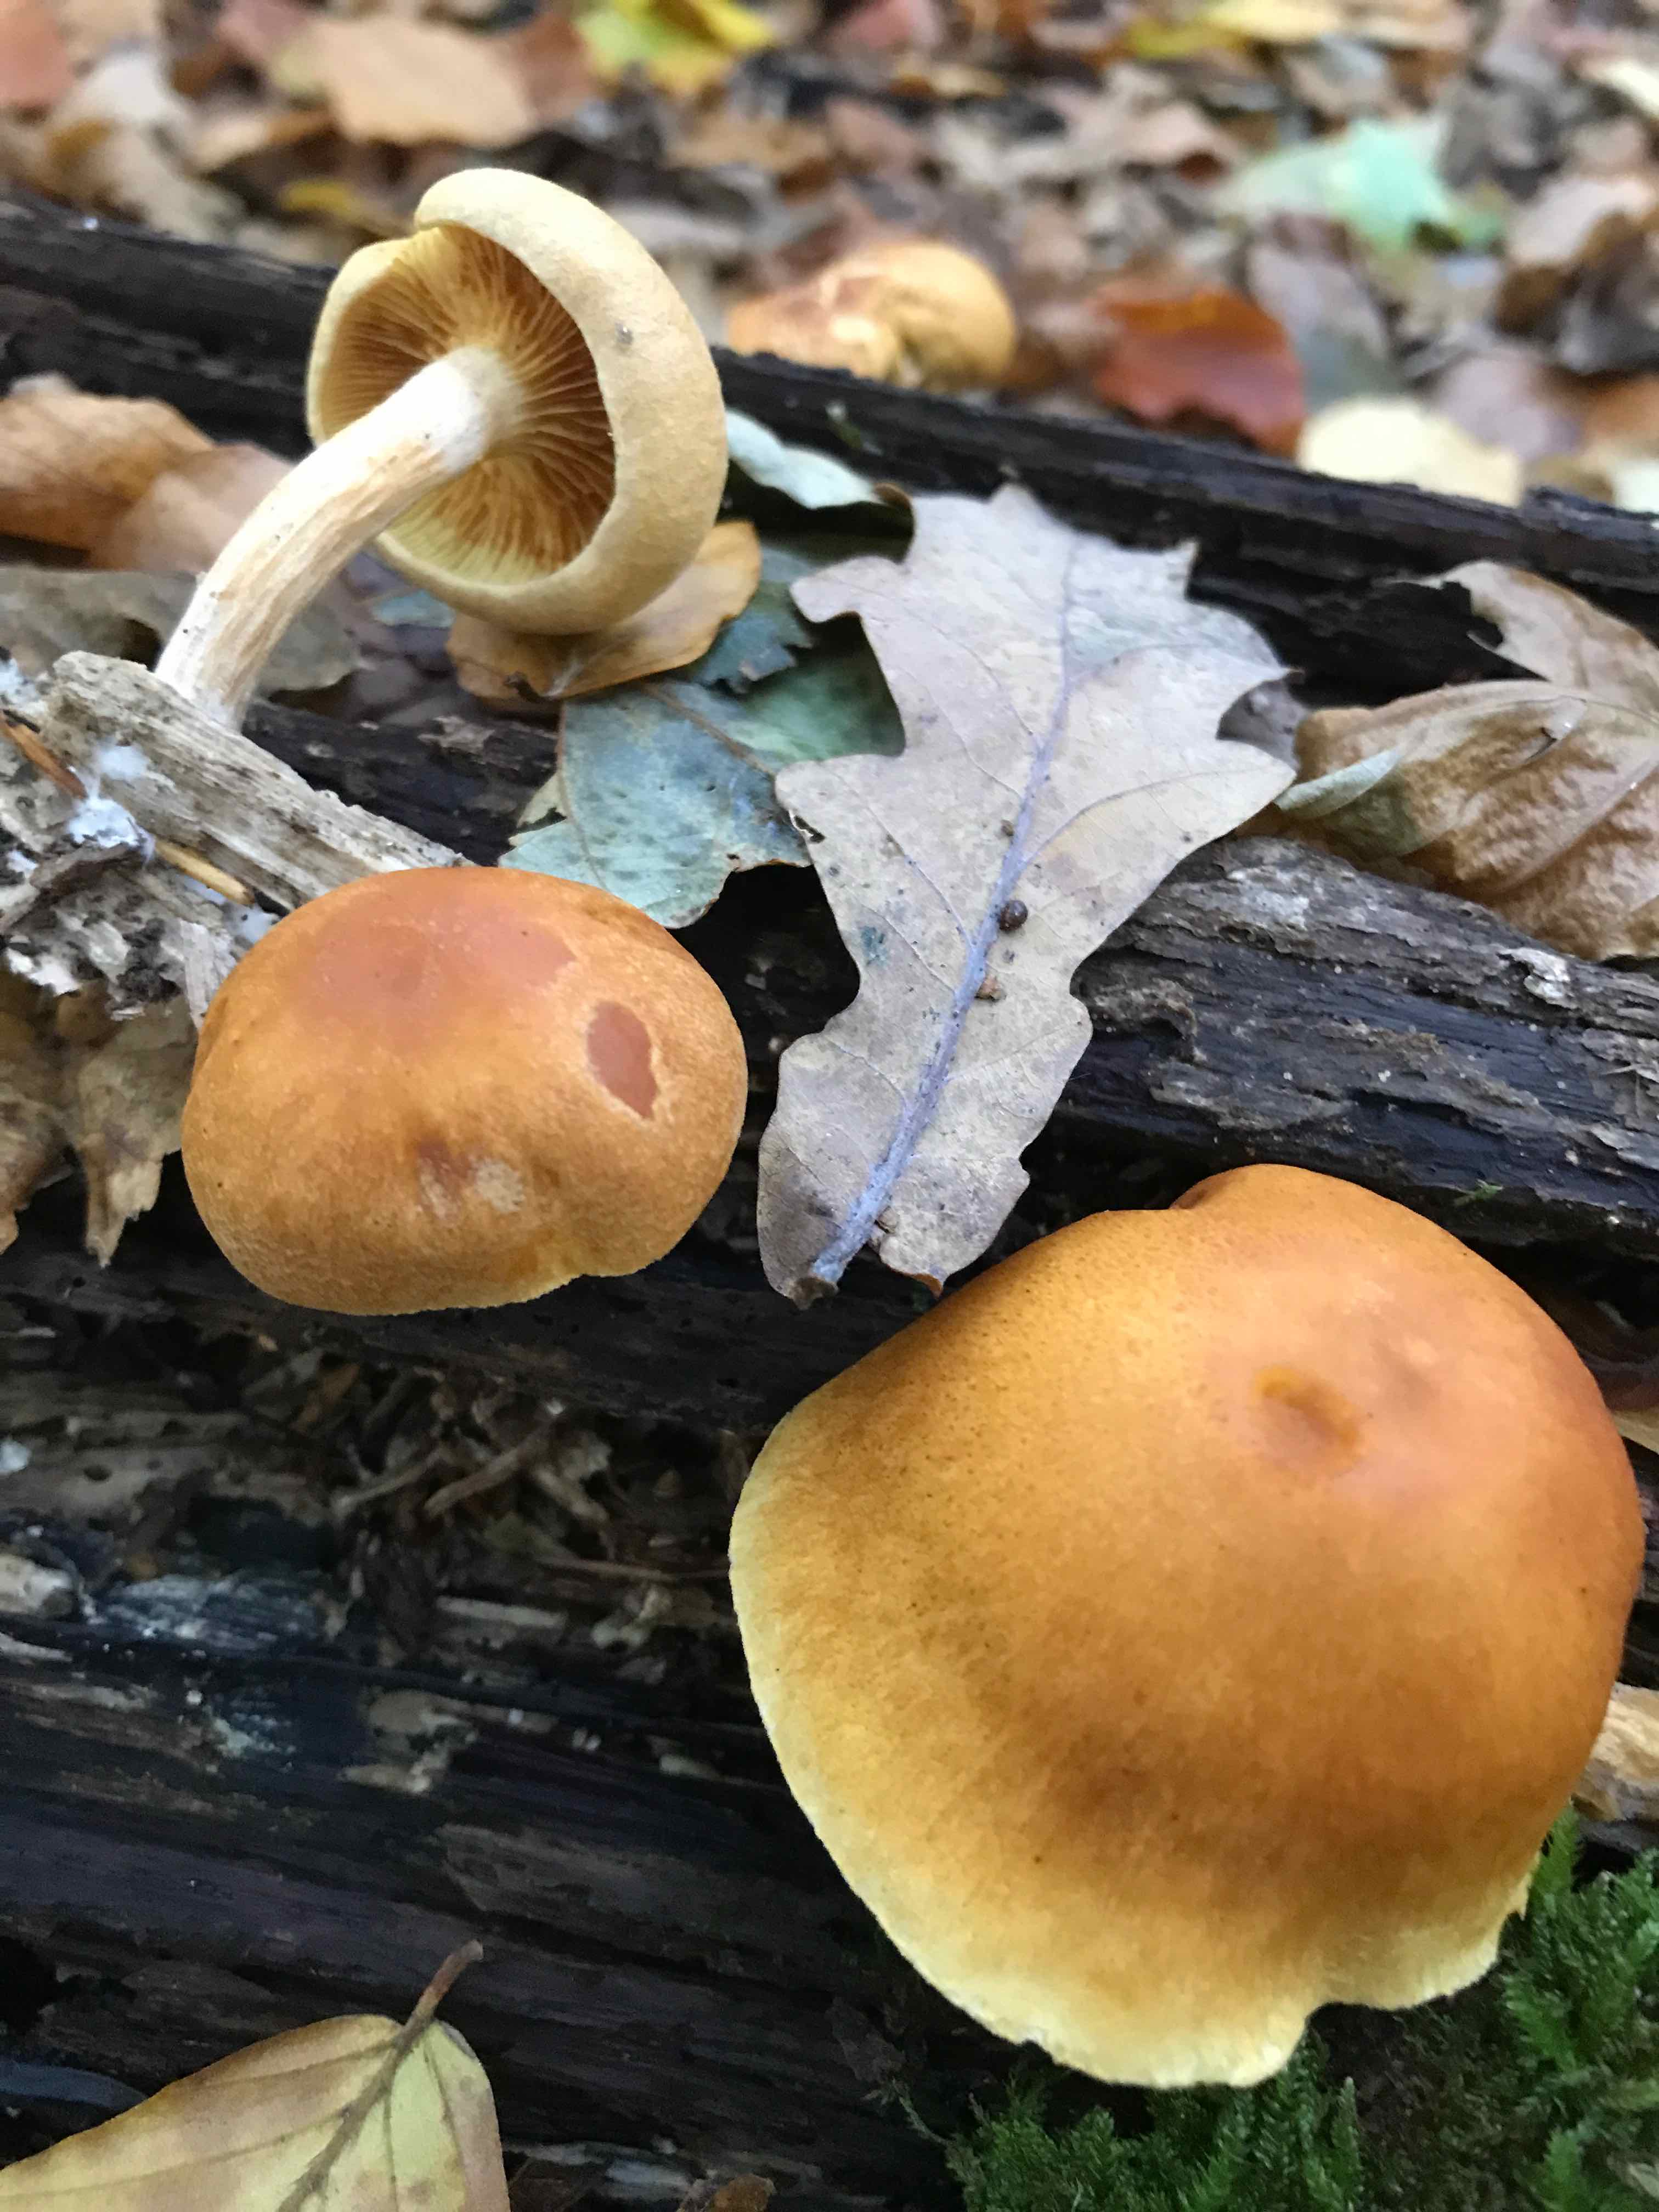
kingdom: Fungi
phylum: Basidiomycota
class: Agaricomycetes
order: Agaricales
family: Hymenogastraceae
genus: Gymnopilus
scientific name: Gymnopilus penetrans
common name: plettet flammehat
